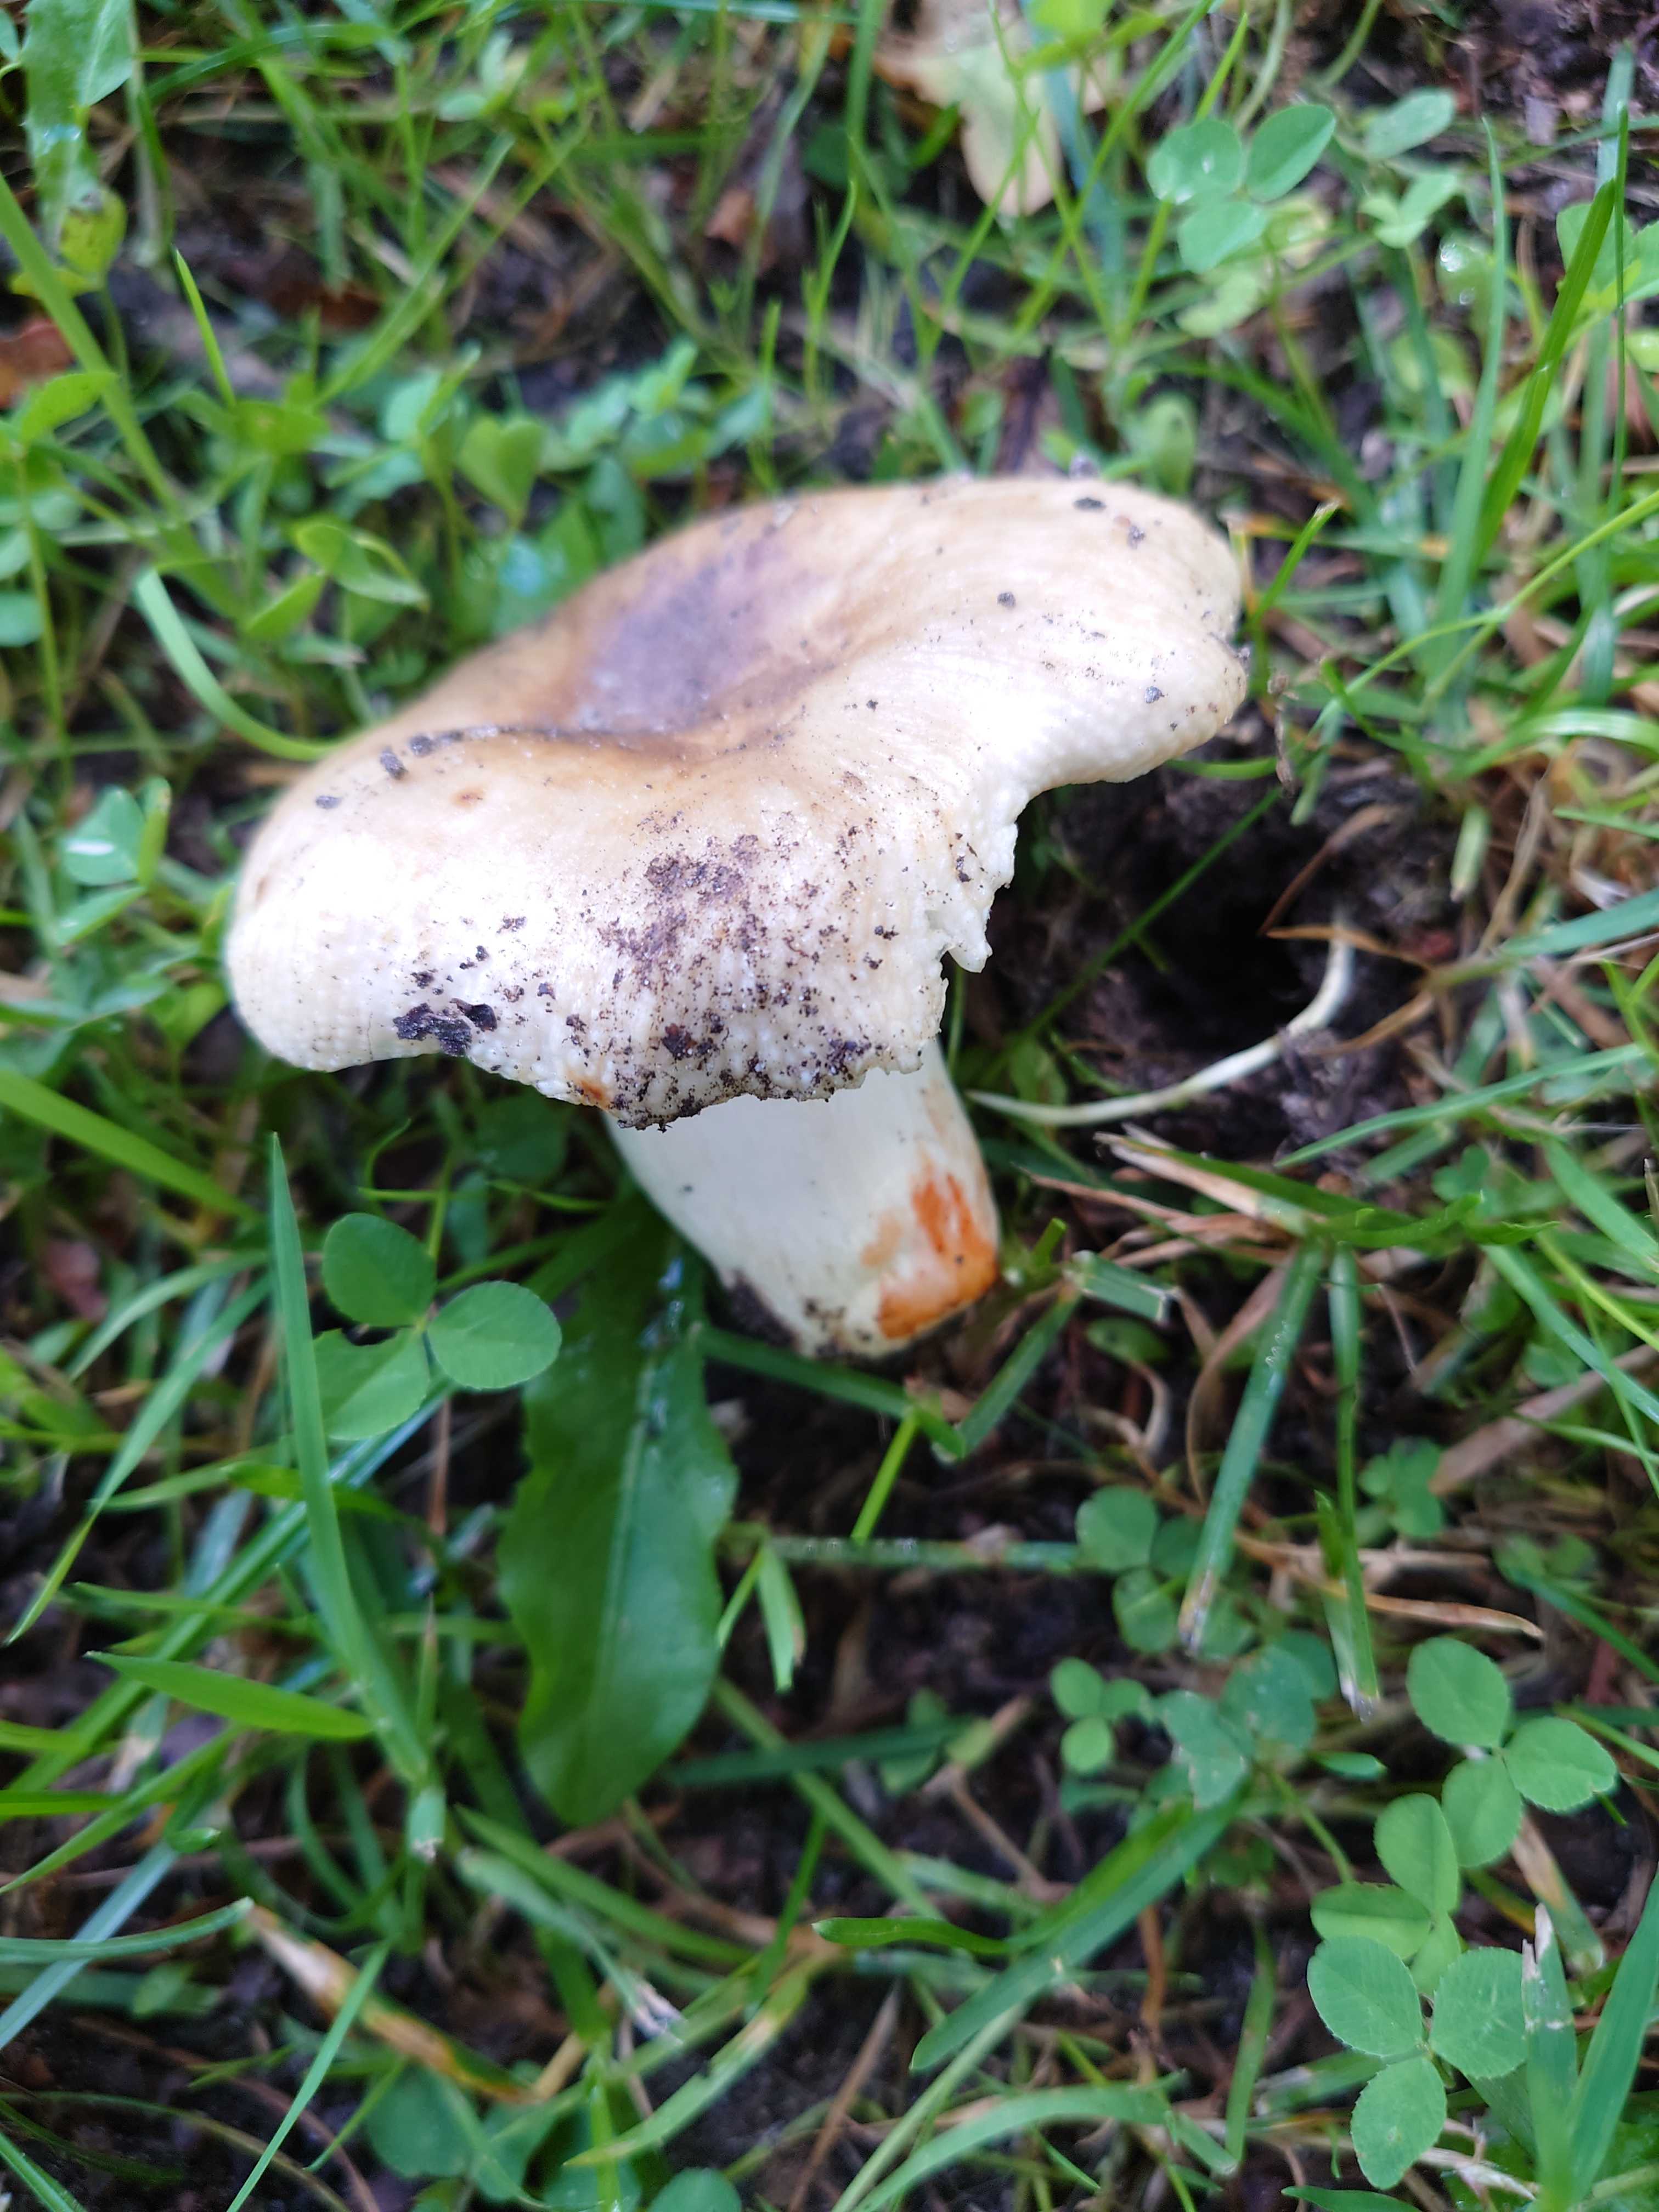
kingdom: Fungi
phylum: Basidiomycota
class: Agaricomycetes
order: Russulales
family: Russulaceae
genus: Russula
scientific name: Russula insignis
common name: gulfodet kam-skørhat
